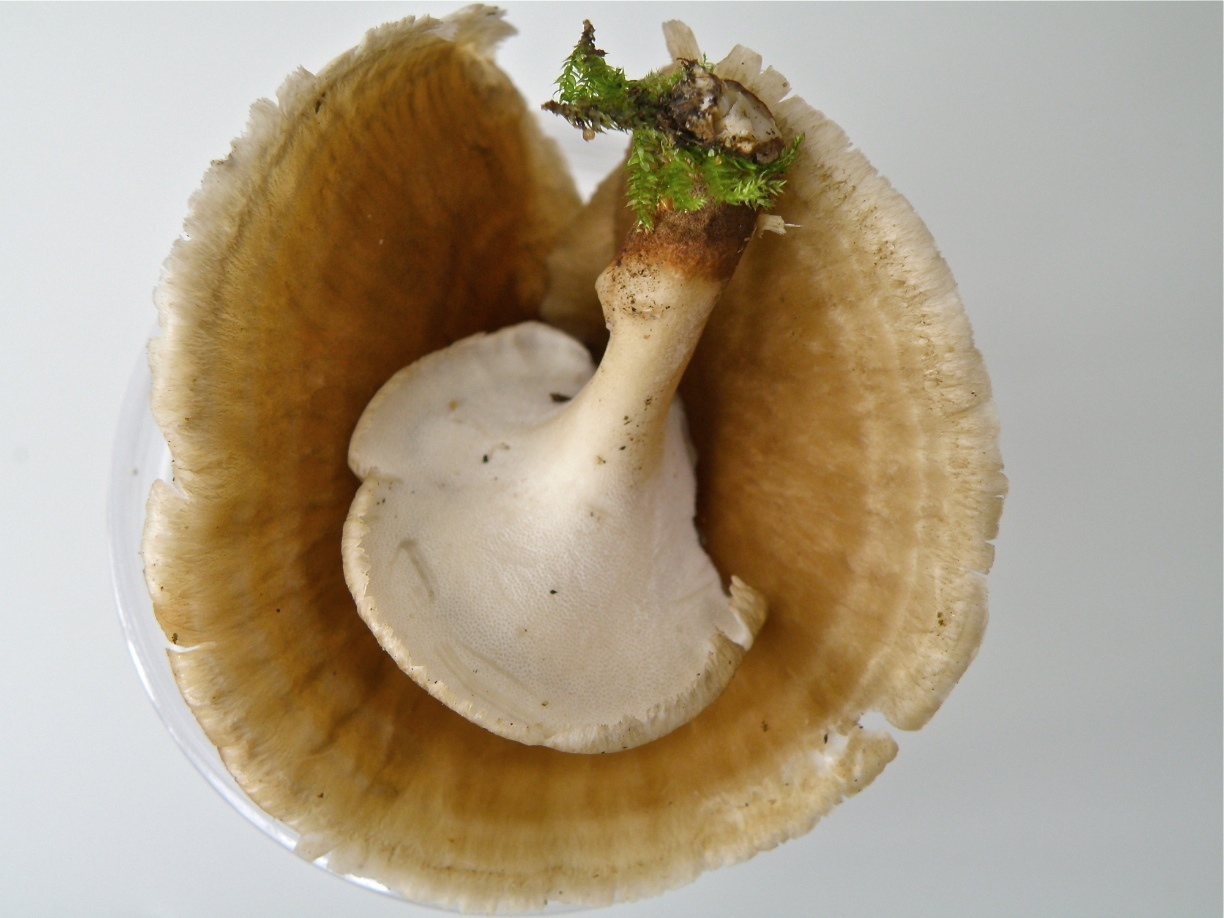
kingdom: Fungi
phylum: Basidiomycota
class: Agaricomycetes
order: Polyporales
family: Polyporaceae
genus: Polyporus
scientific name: Polyporus
